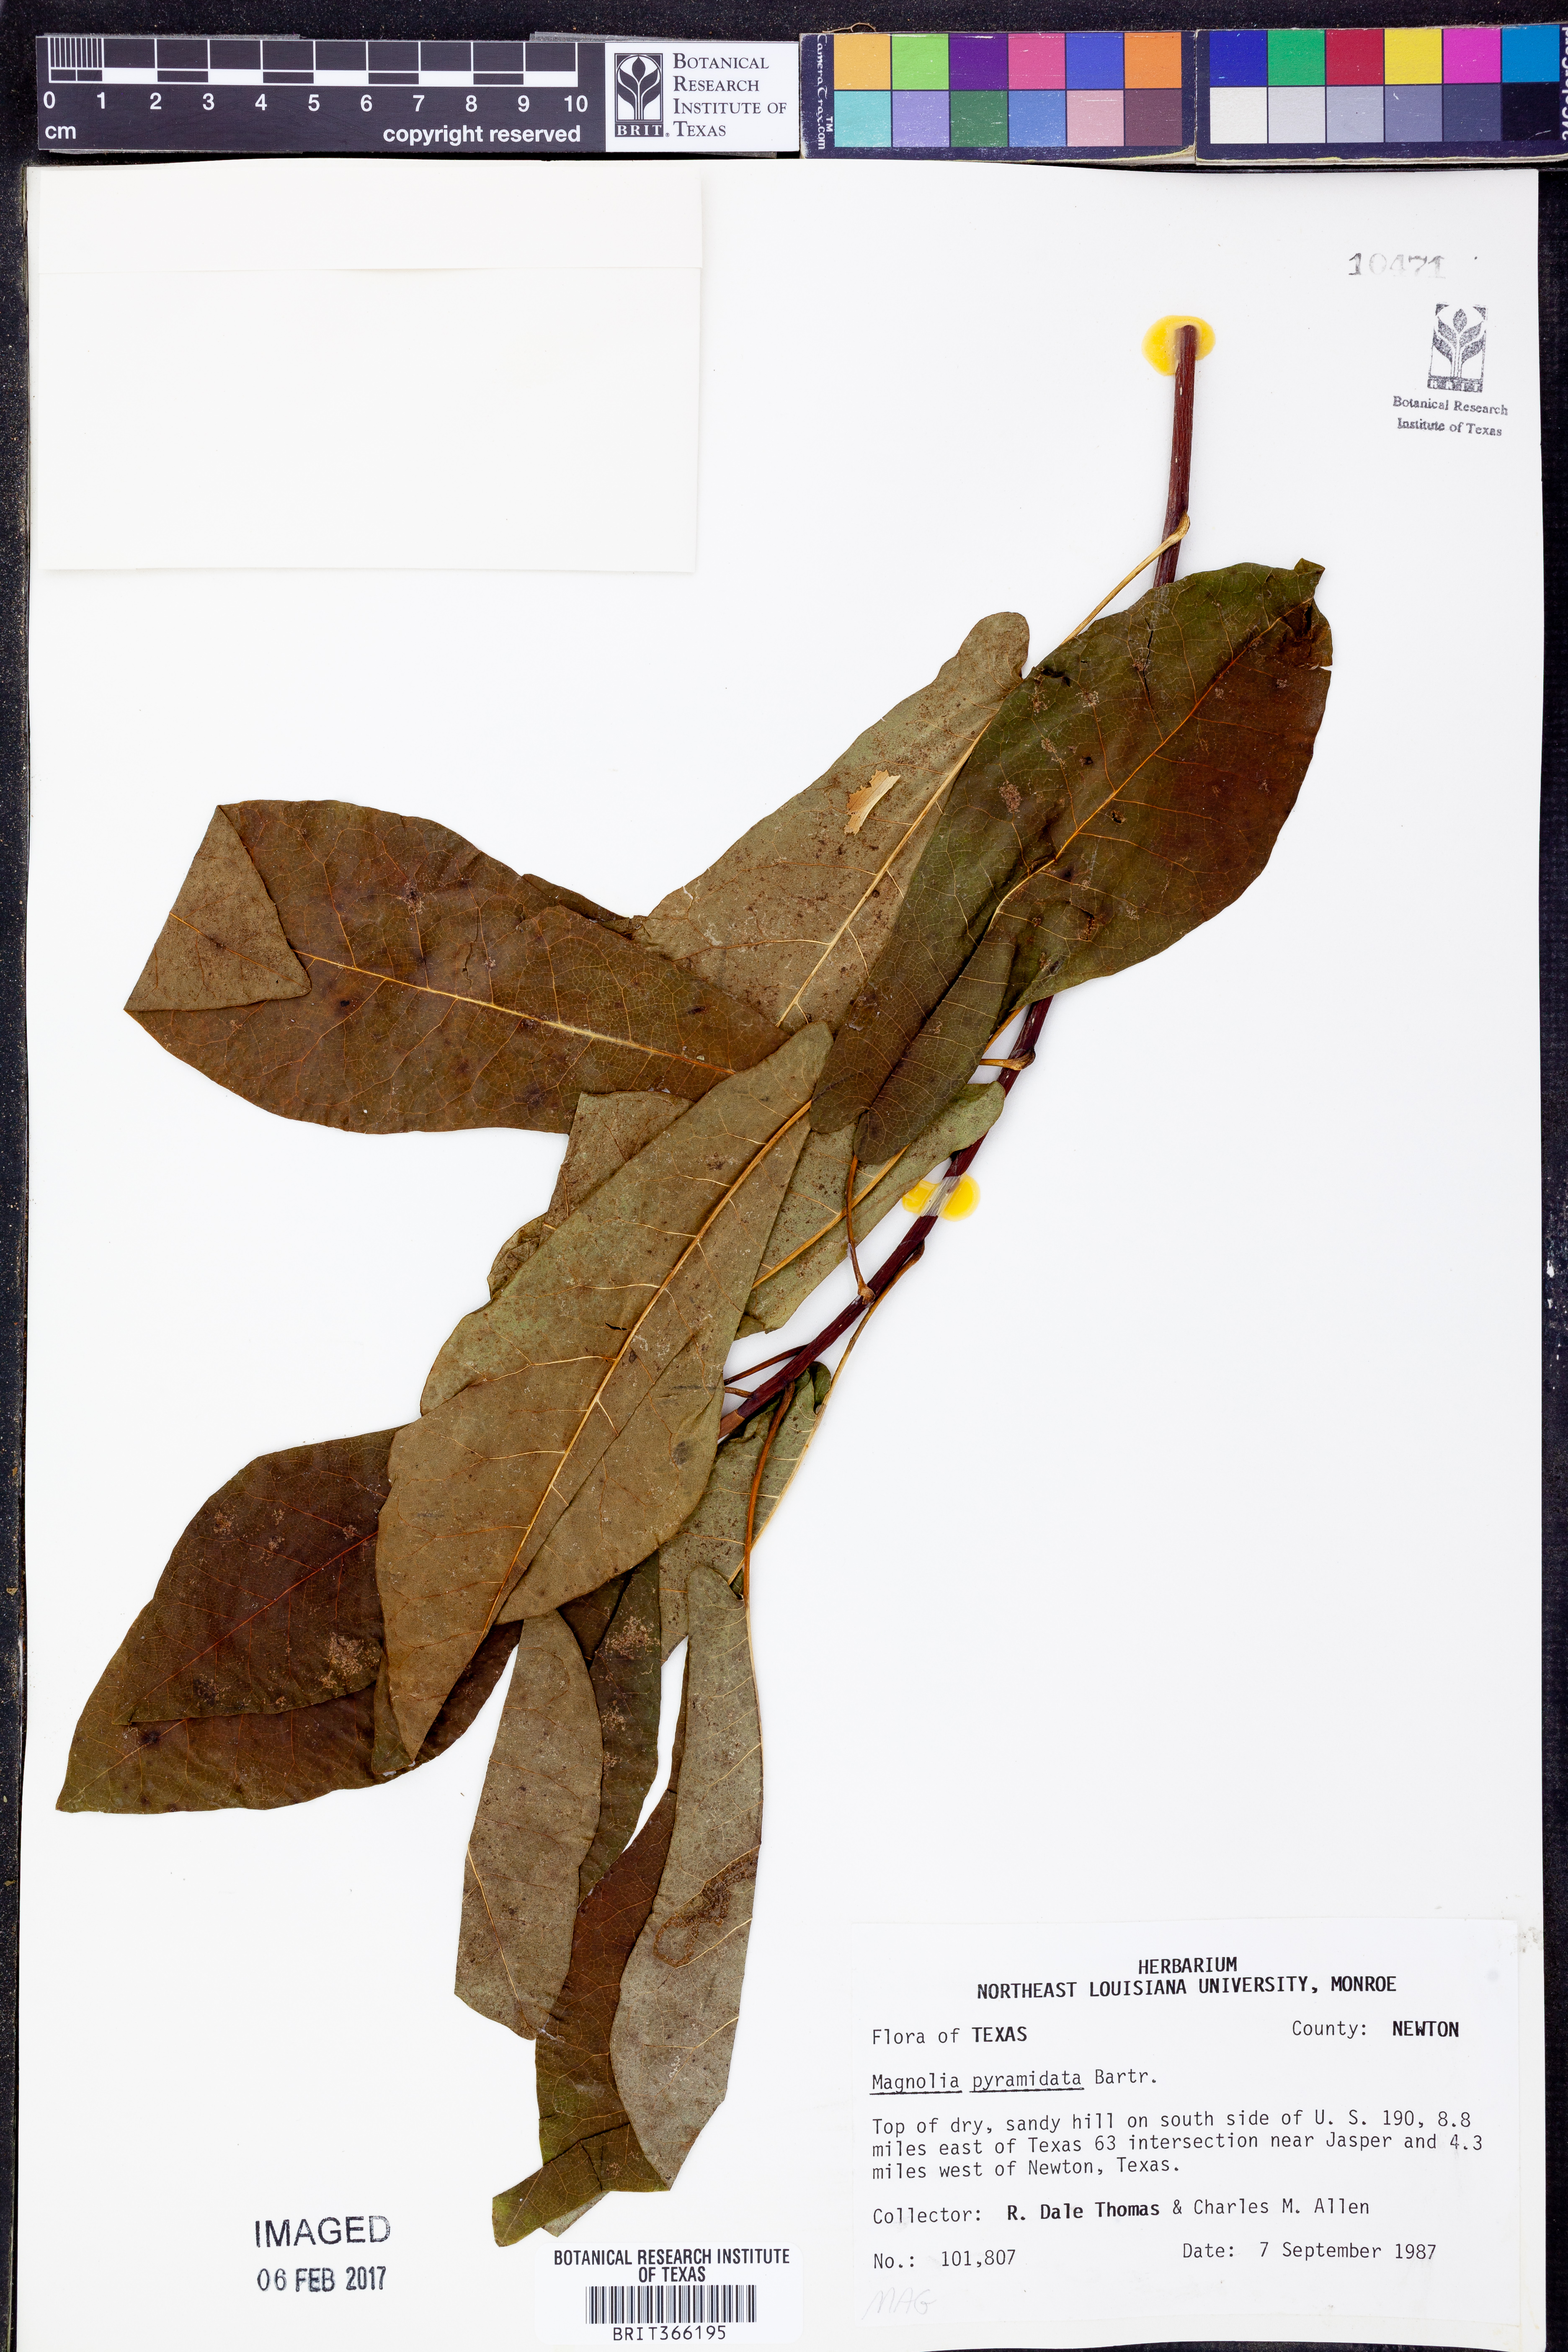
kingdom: Plantae
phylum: Tracheophyta
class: Magnoliopsida
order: Magnoliales
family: Magnoliaceae
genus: Magnolia
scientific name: Magnolia fraseri
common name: Fraser's magnolia
